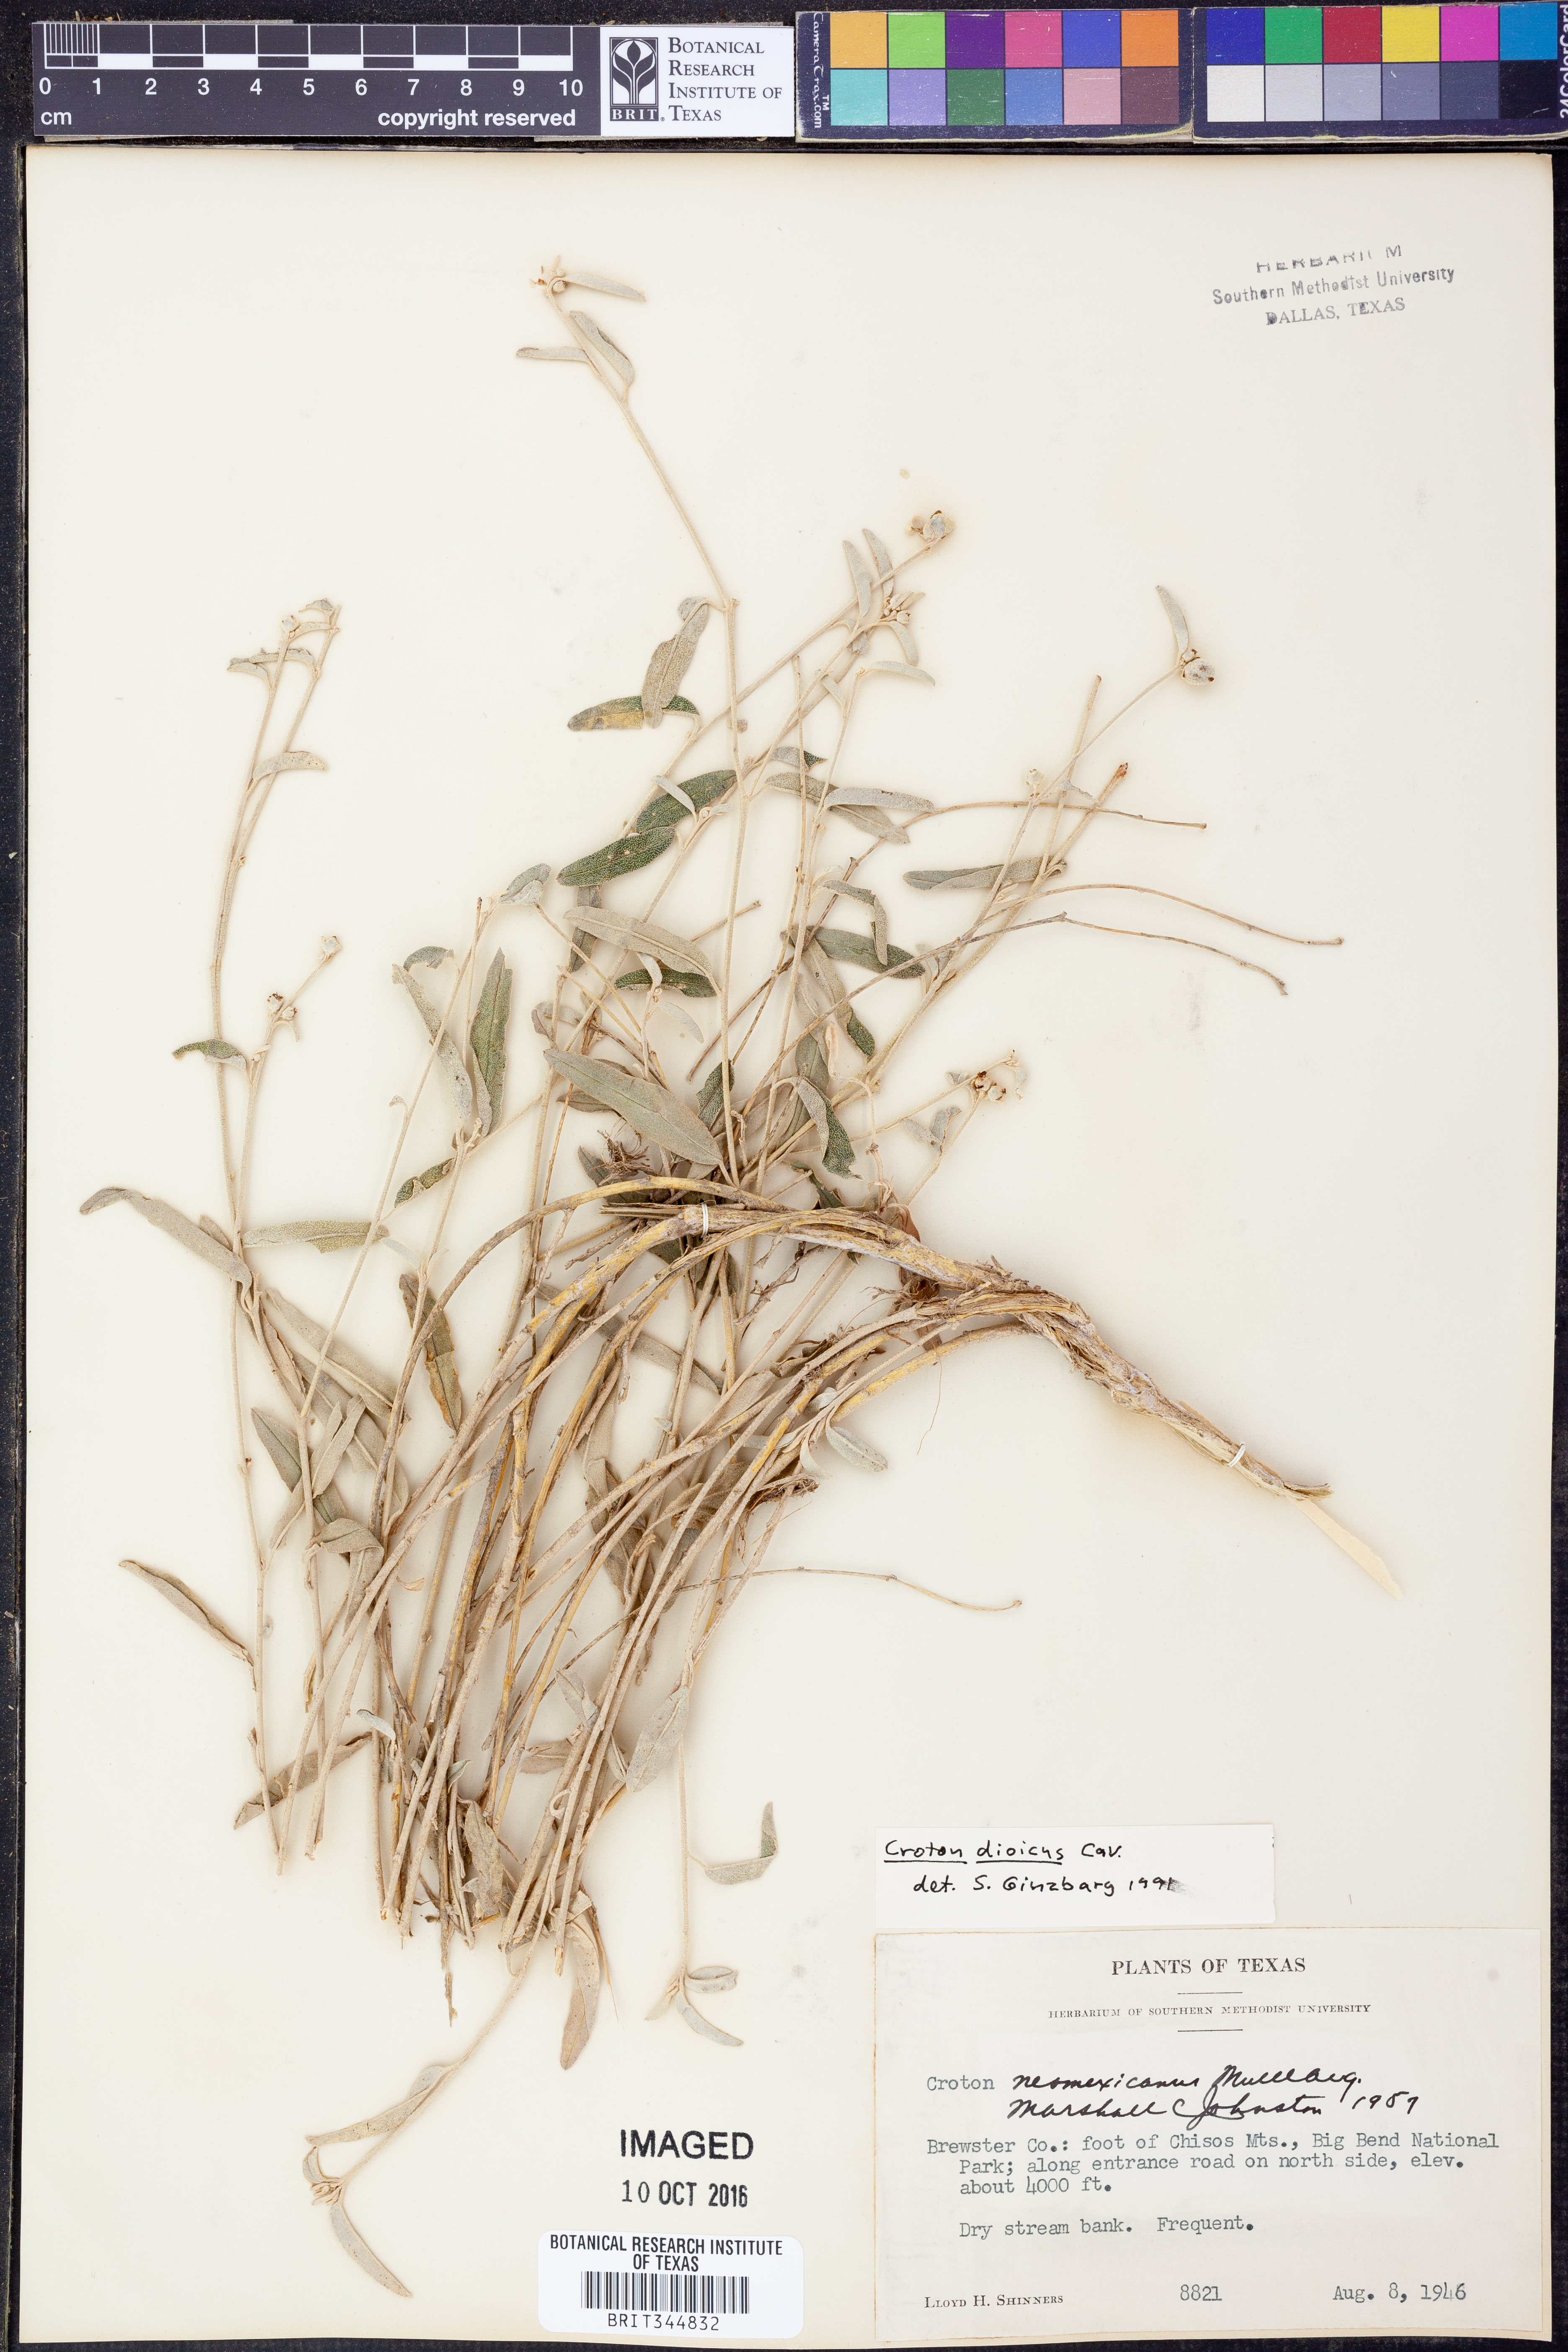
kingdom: Plantae
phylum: Tracheophyta
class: Magnoliopsida
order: Malpighiales
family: Euphorbiaceae
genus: Croton
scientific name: Croton dioicus
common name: Grassland croton
